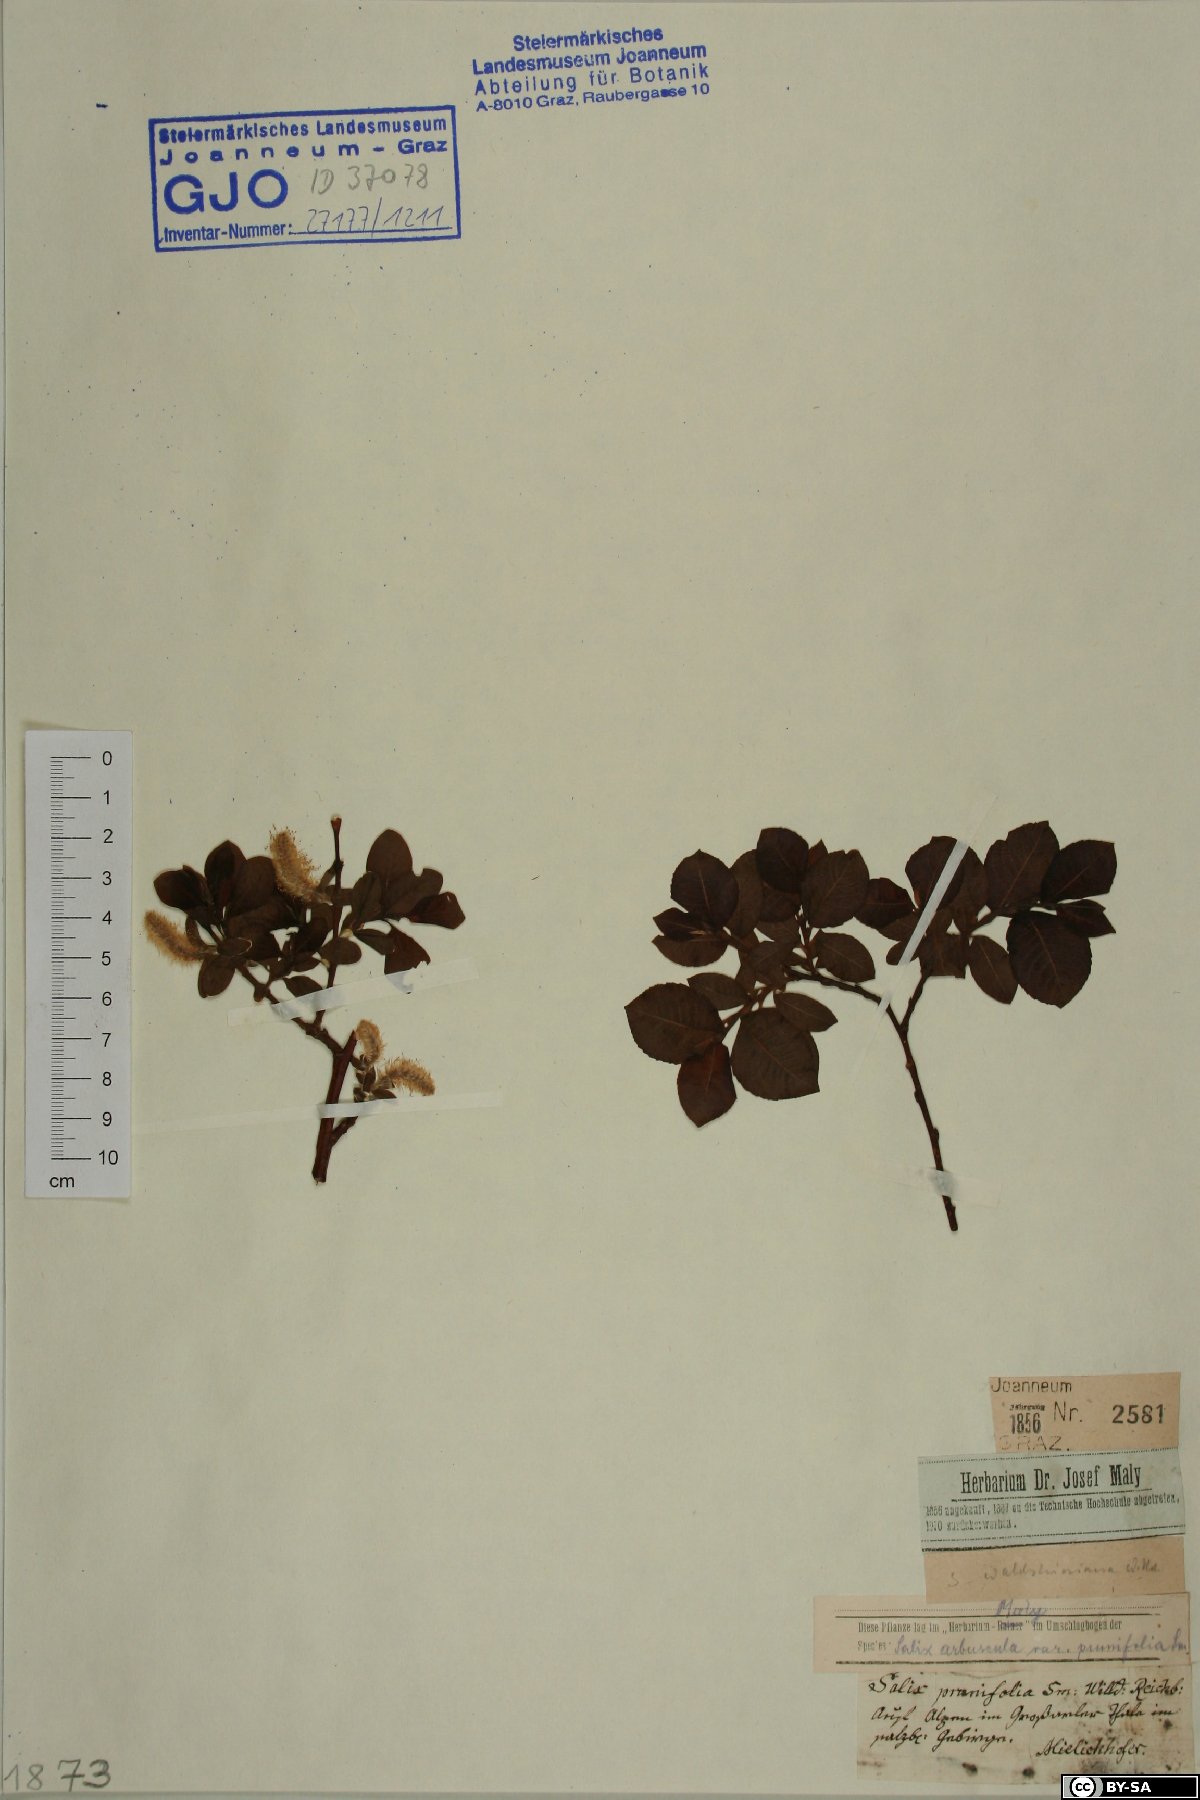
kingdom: Plantae
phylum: Tracheophyta
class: Magnoliopsida
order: Malpighiales
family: Salicaceae
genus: Salix
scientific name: Salix waldsteiniana
